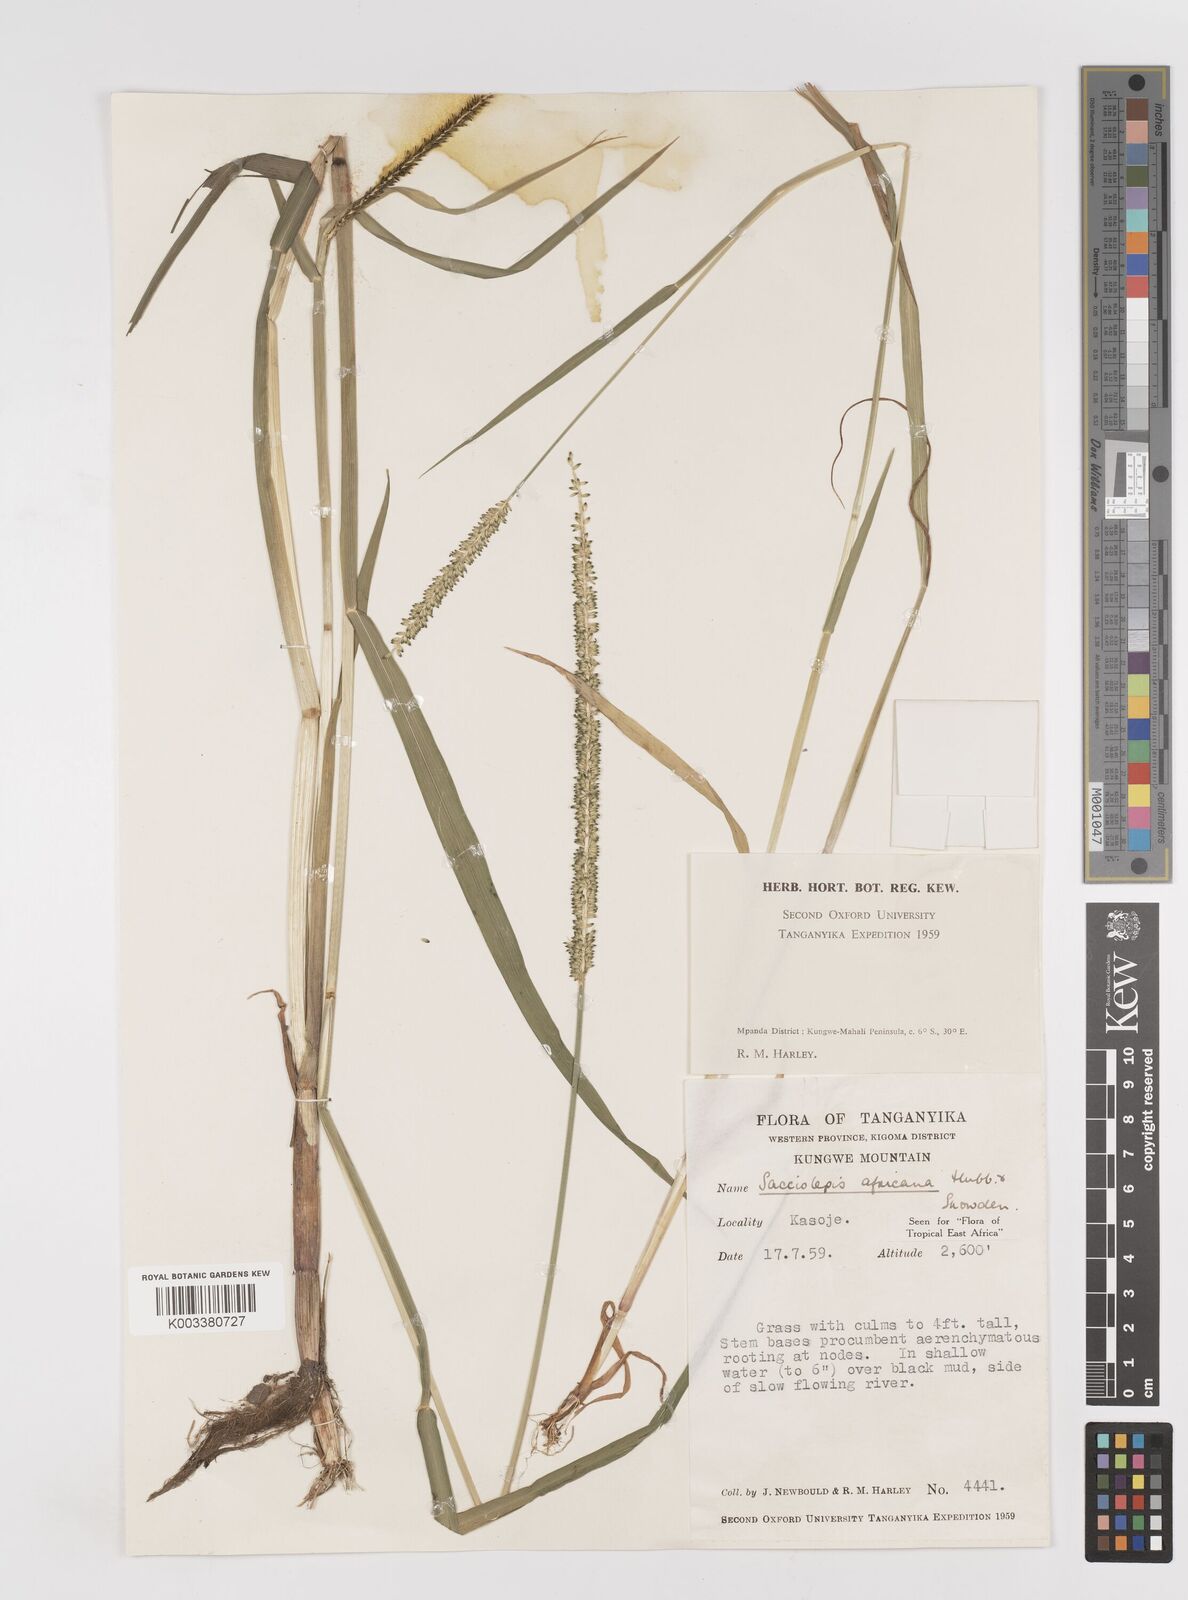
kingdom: Plantae
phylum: Tracheophyta
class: Liliopsida
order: Poales
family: Poaceae
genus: Sacciolepis
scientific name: Sacciolepis africana
